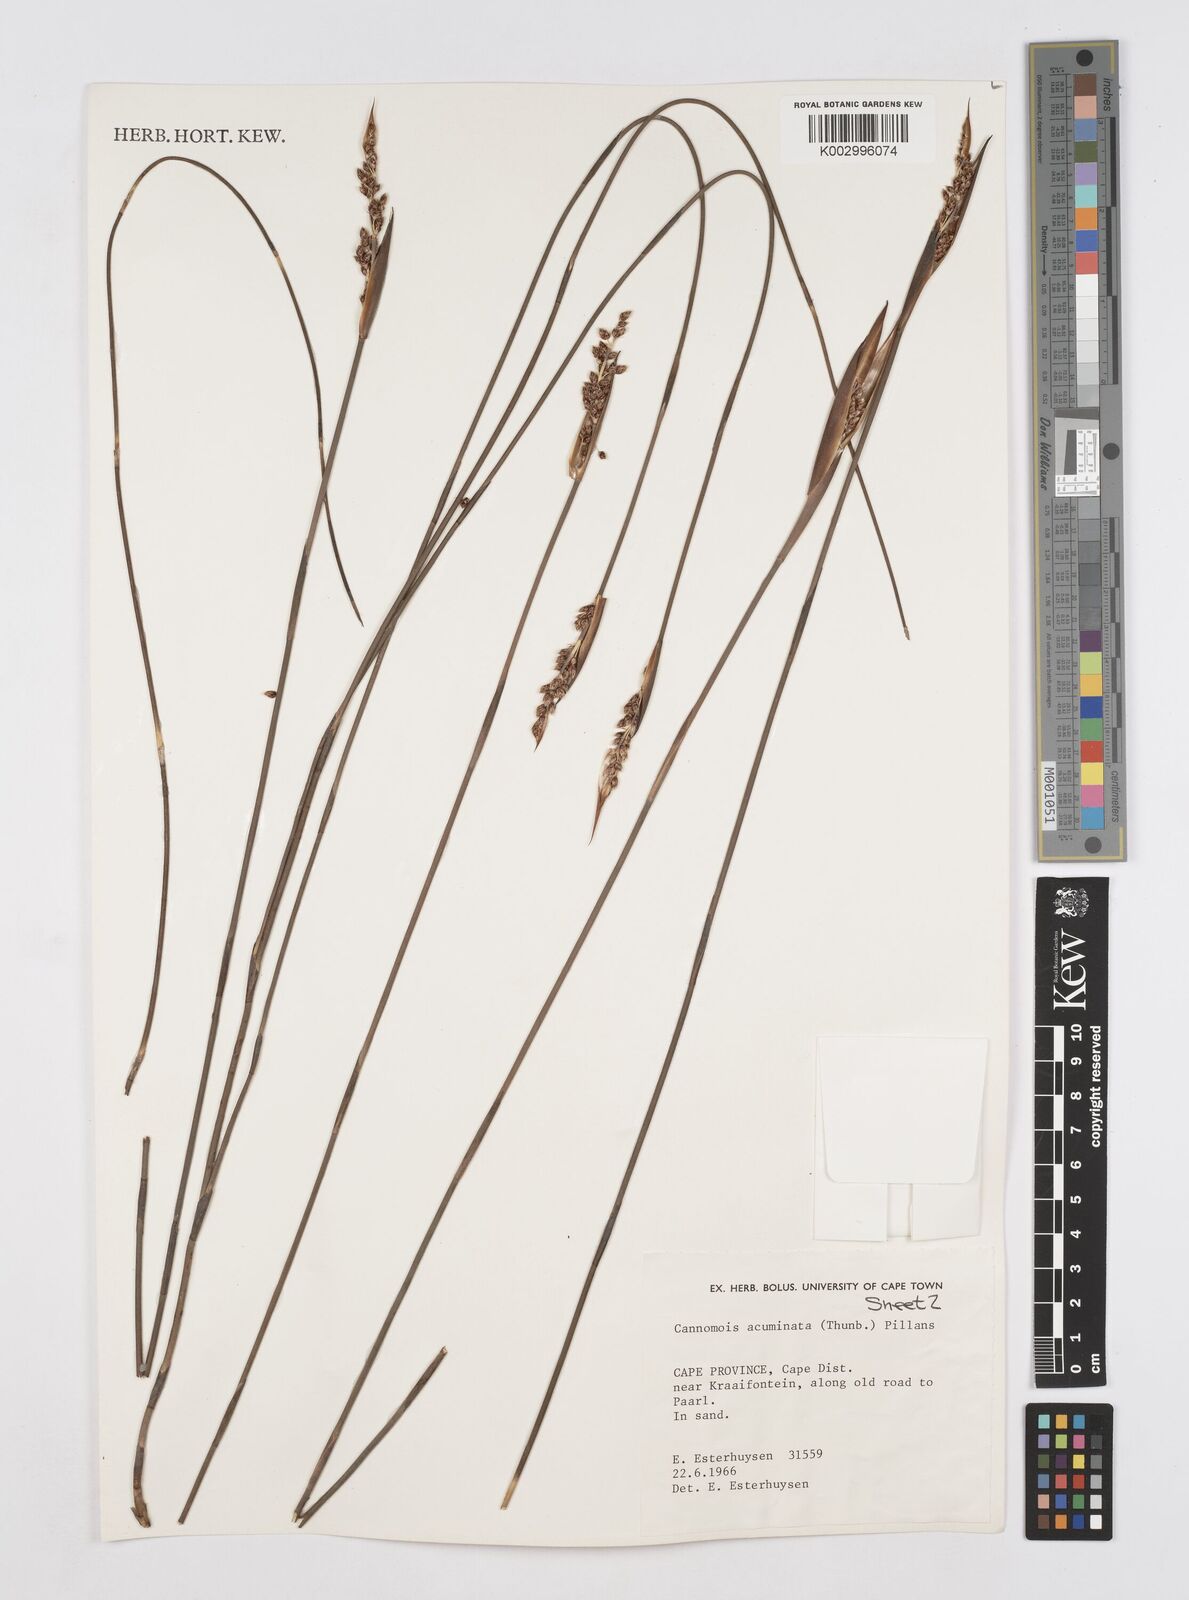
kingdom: Plantae
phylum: Tracheophyta
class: Liliopsida
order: Poales
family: Restionaceae
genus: Cannomois
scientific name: Cannomois parviflora
